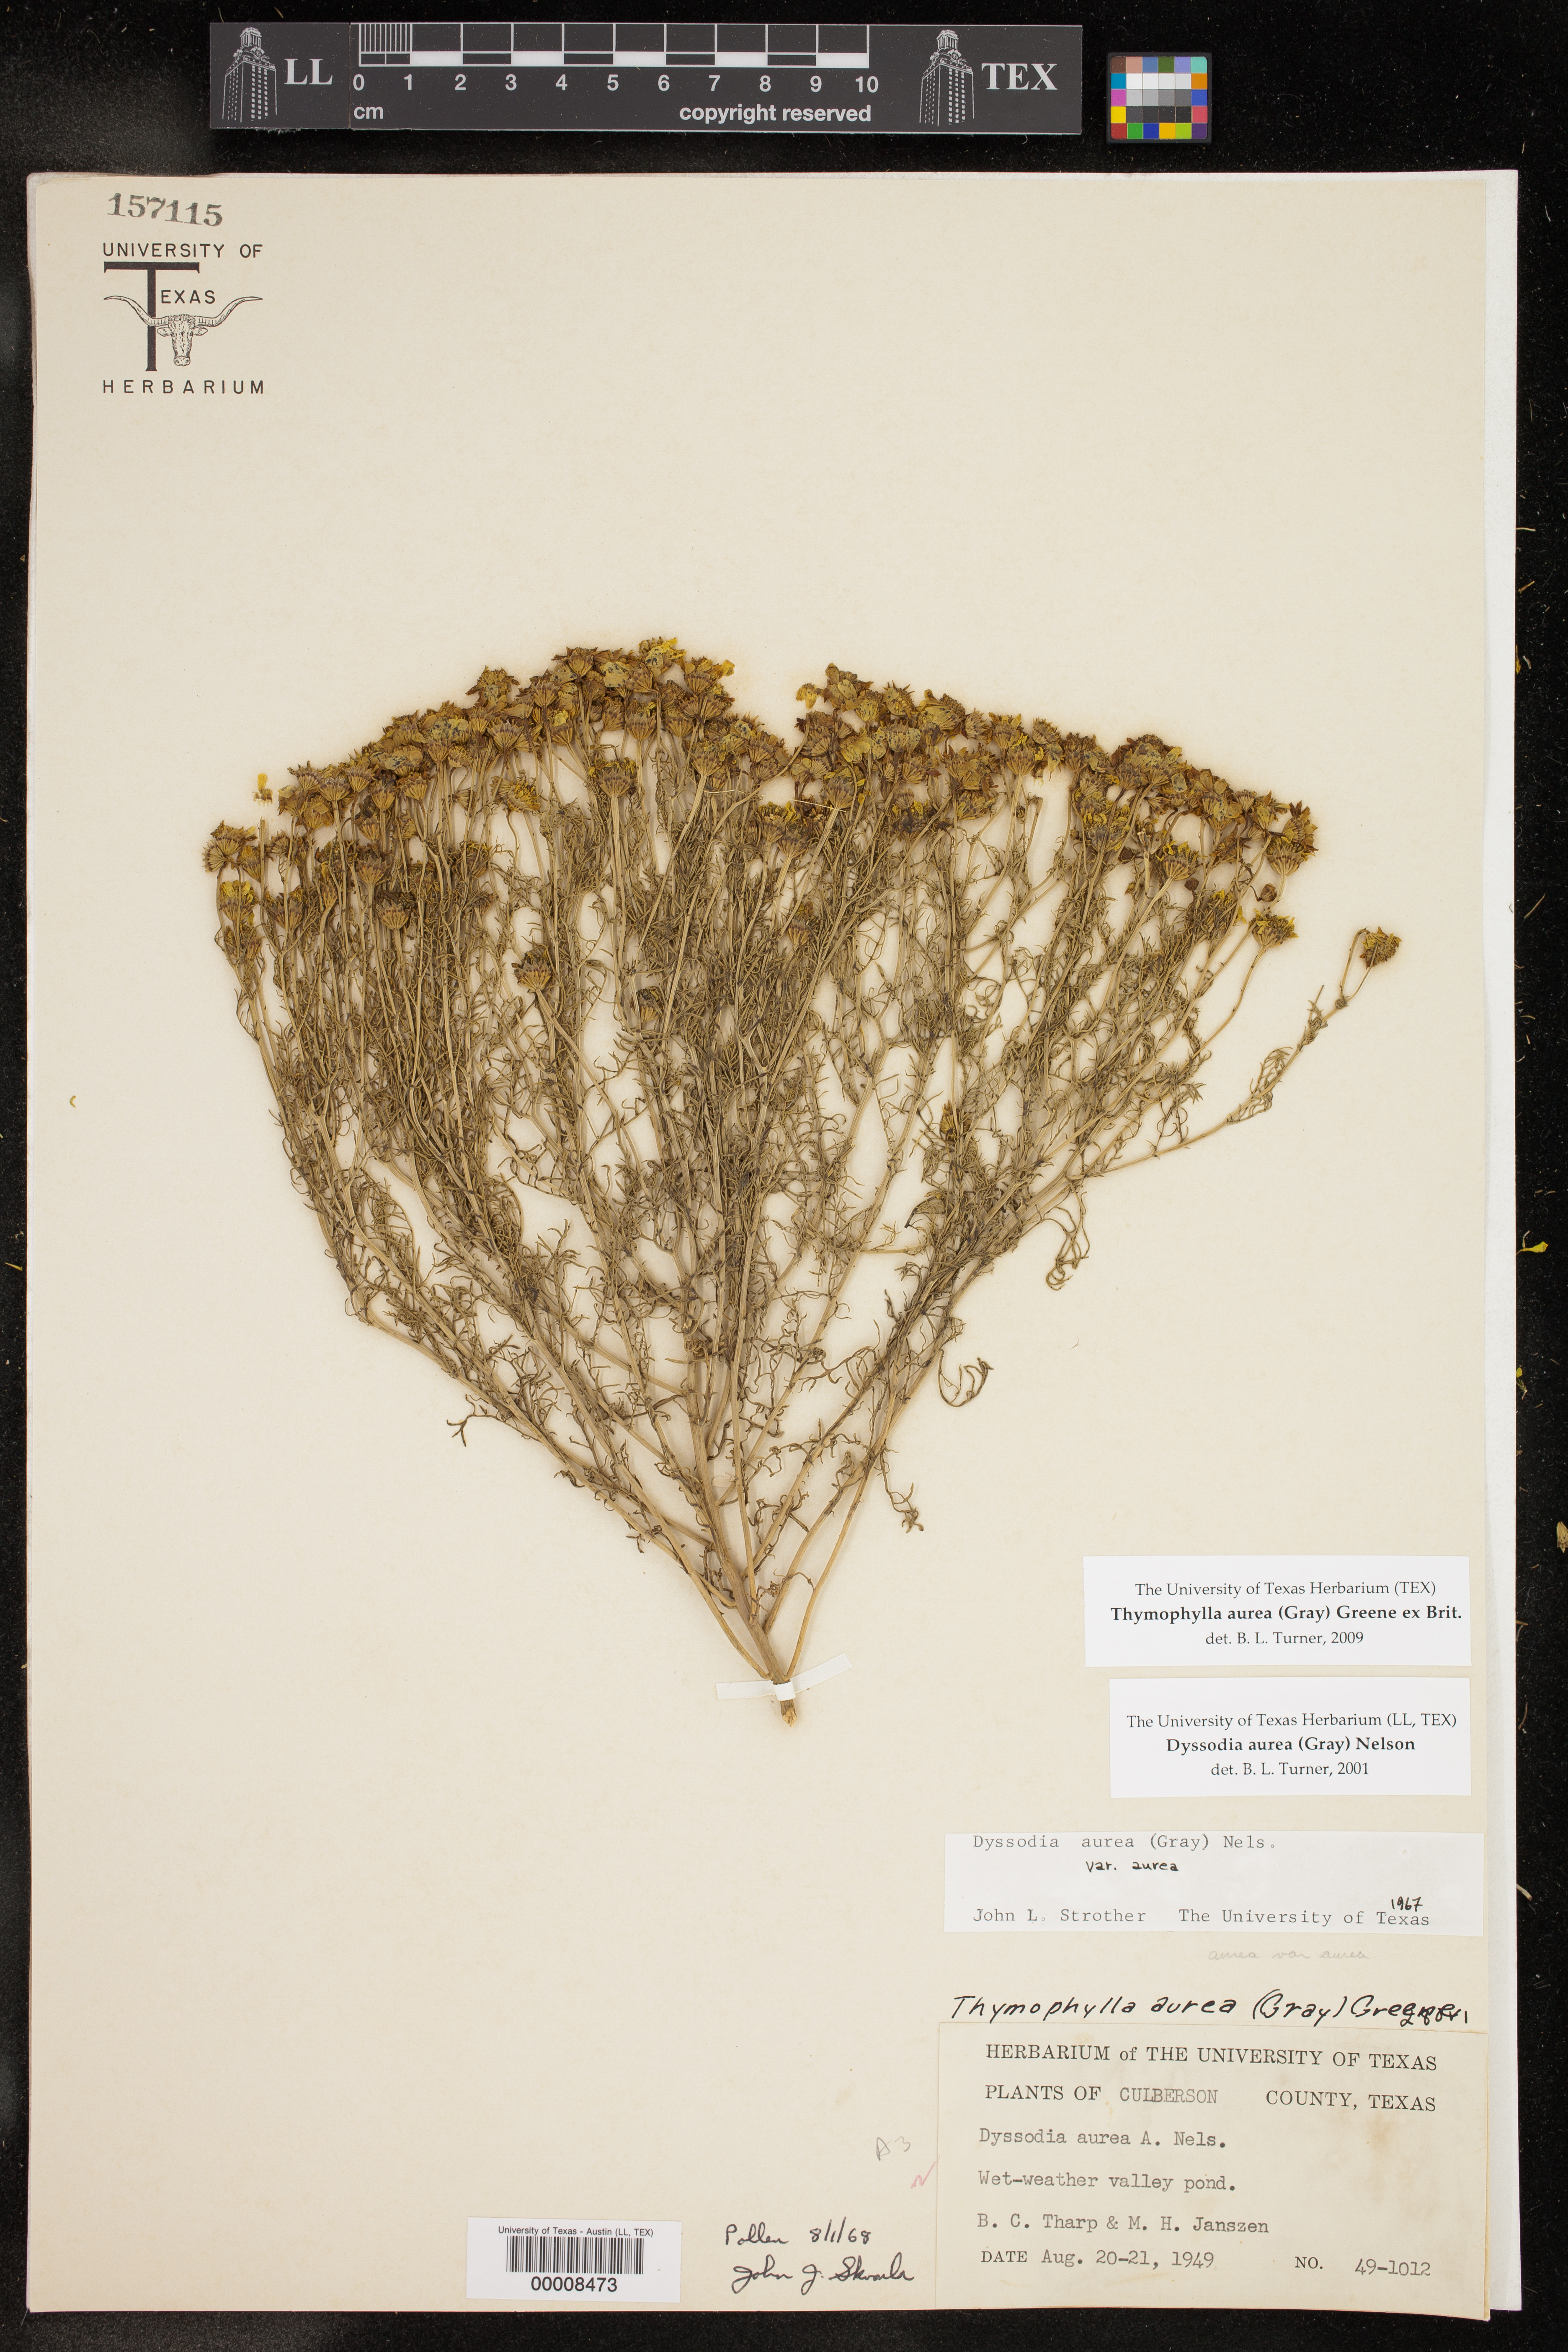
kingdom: Plantae
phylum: Tracheophyta
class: Magnoliopsida
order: Asterales
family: Asteraceae
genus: Thymophylla
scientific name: Thymophylla aurea
